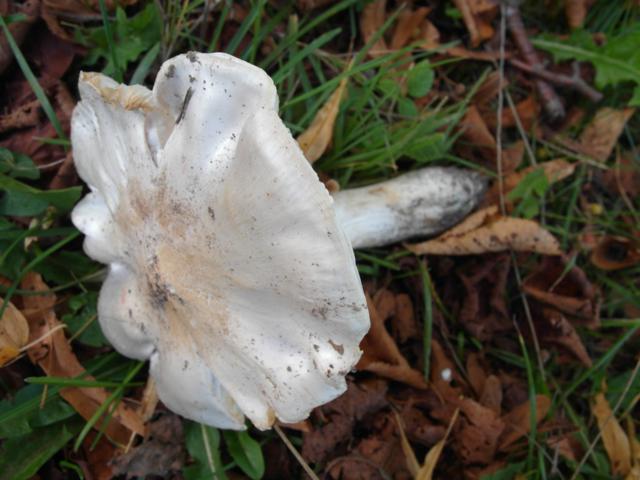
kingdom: Fungi
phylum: Basidiomycota
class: Agaricomycetes
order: Agaricales
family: Tricholomataceae
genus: Tricholoma
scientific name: Tricholoma columbetta
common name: silke-ridderhat
